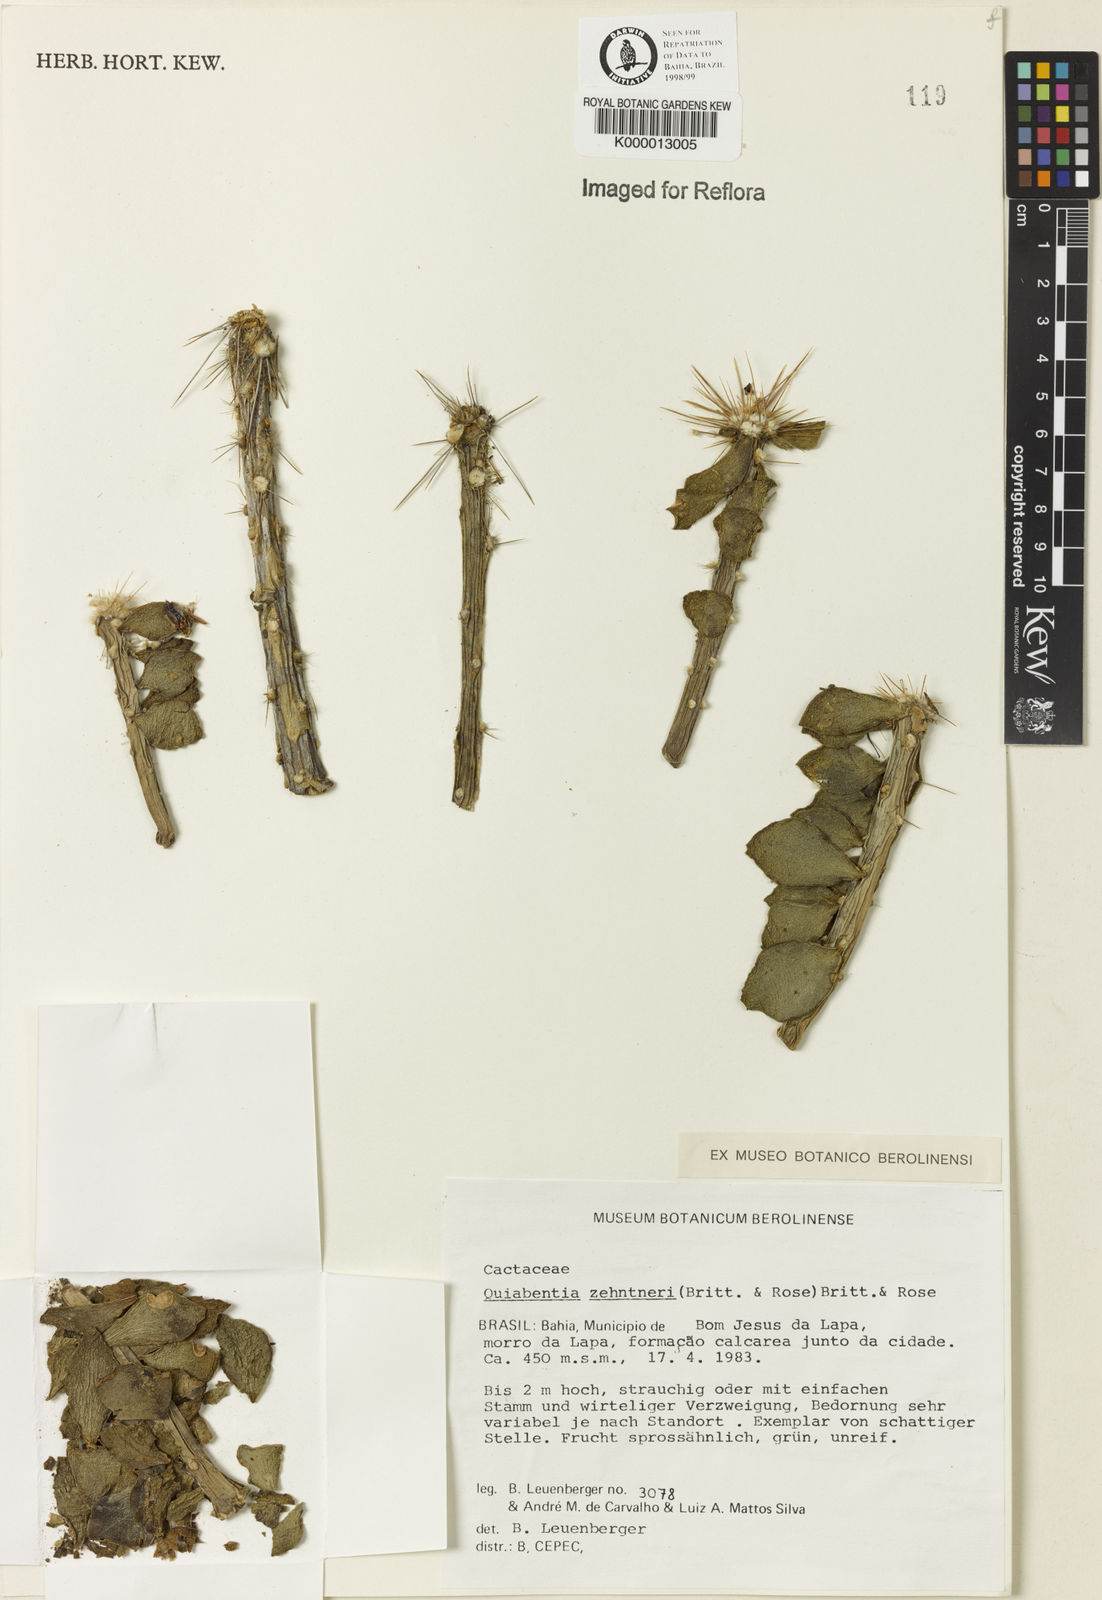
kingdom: Plantae
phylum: Tracheophyta
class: Magnoliopsida
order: Caryophyllales
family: Cactaceae
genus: Quiabentia
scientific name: Quiabentia zehntneri
